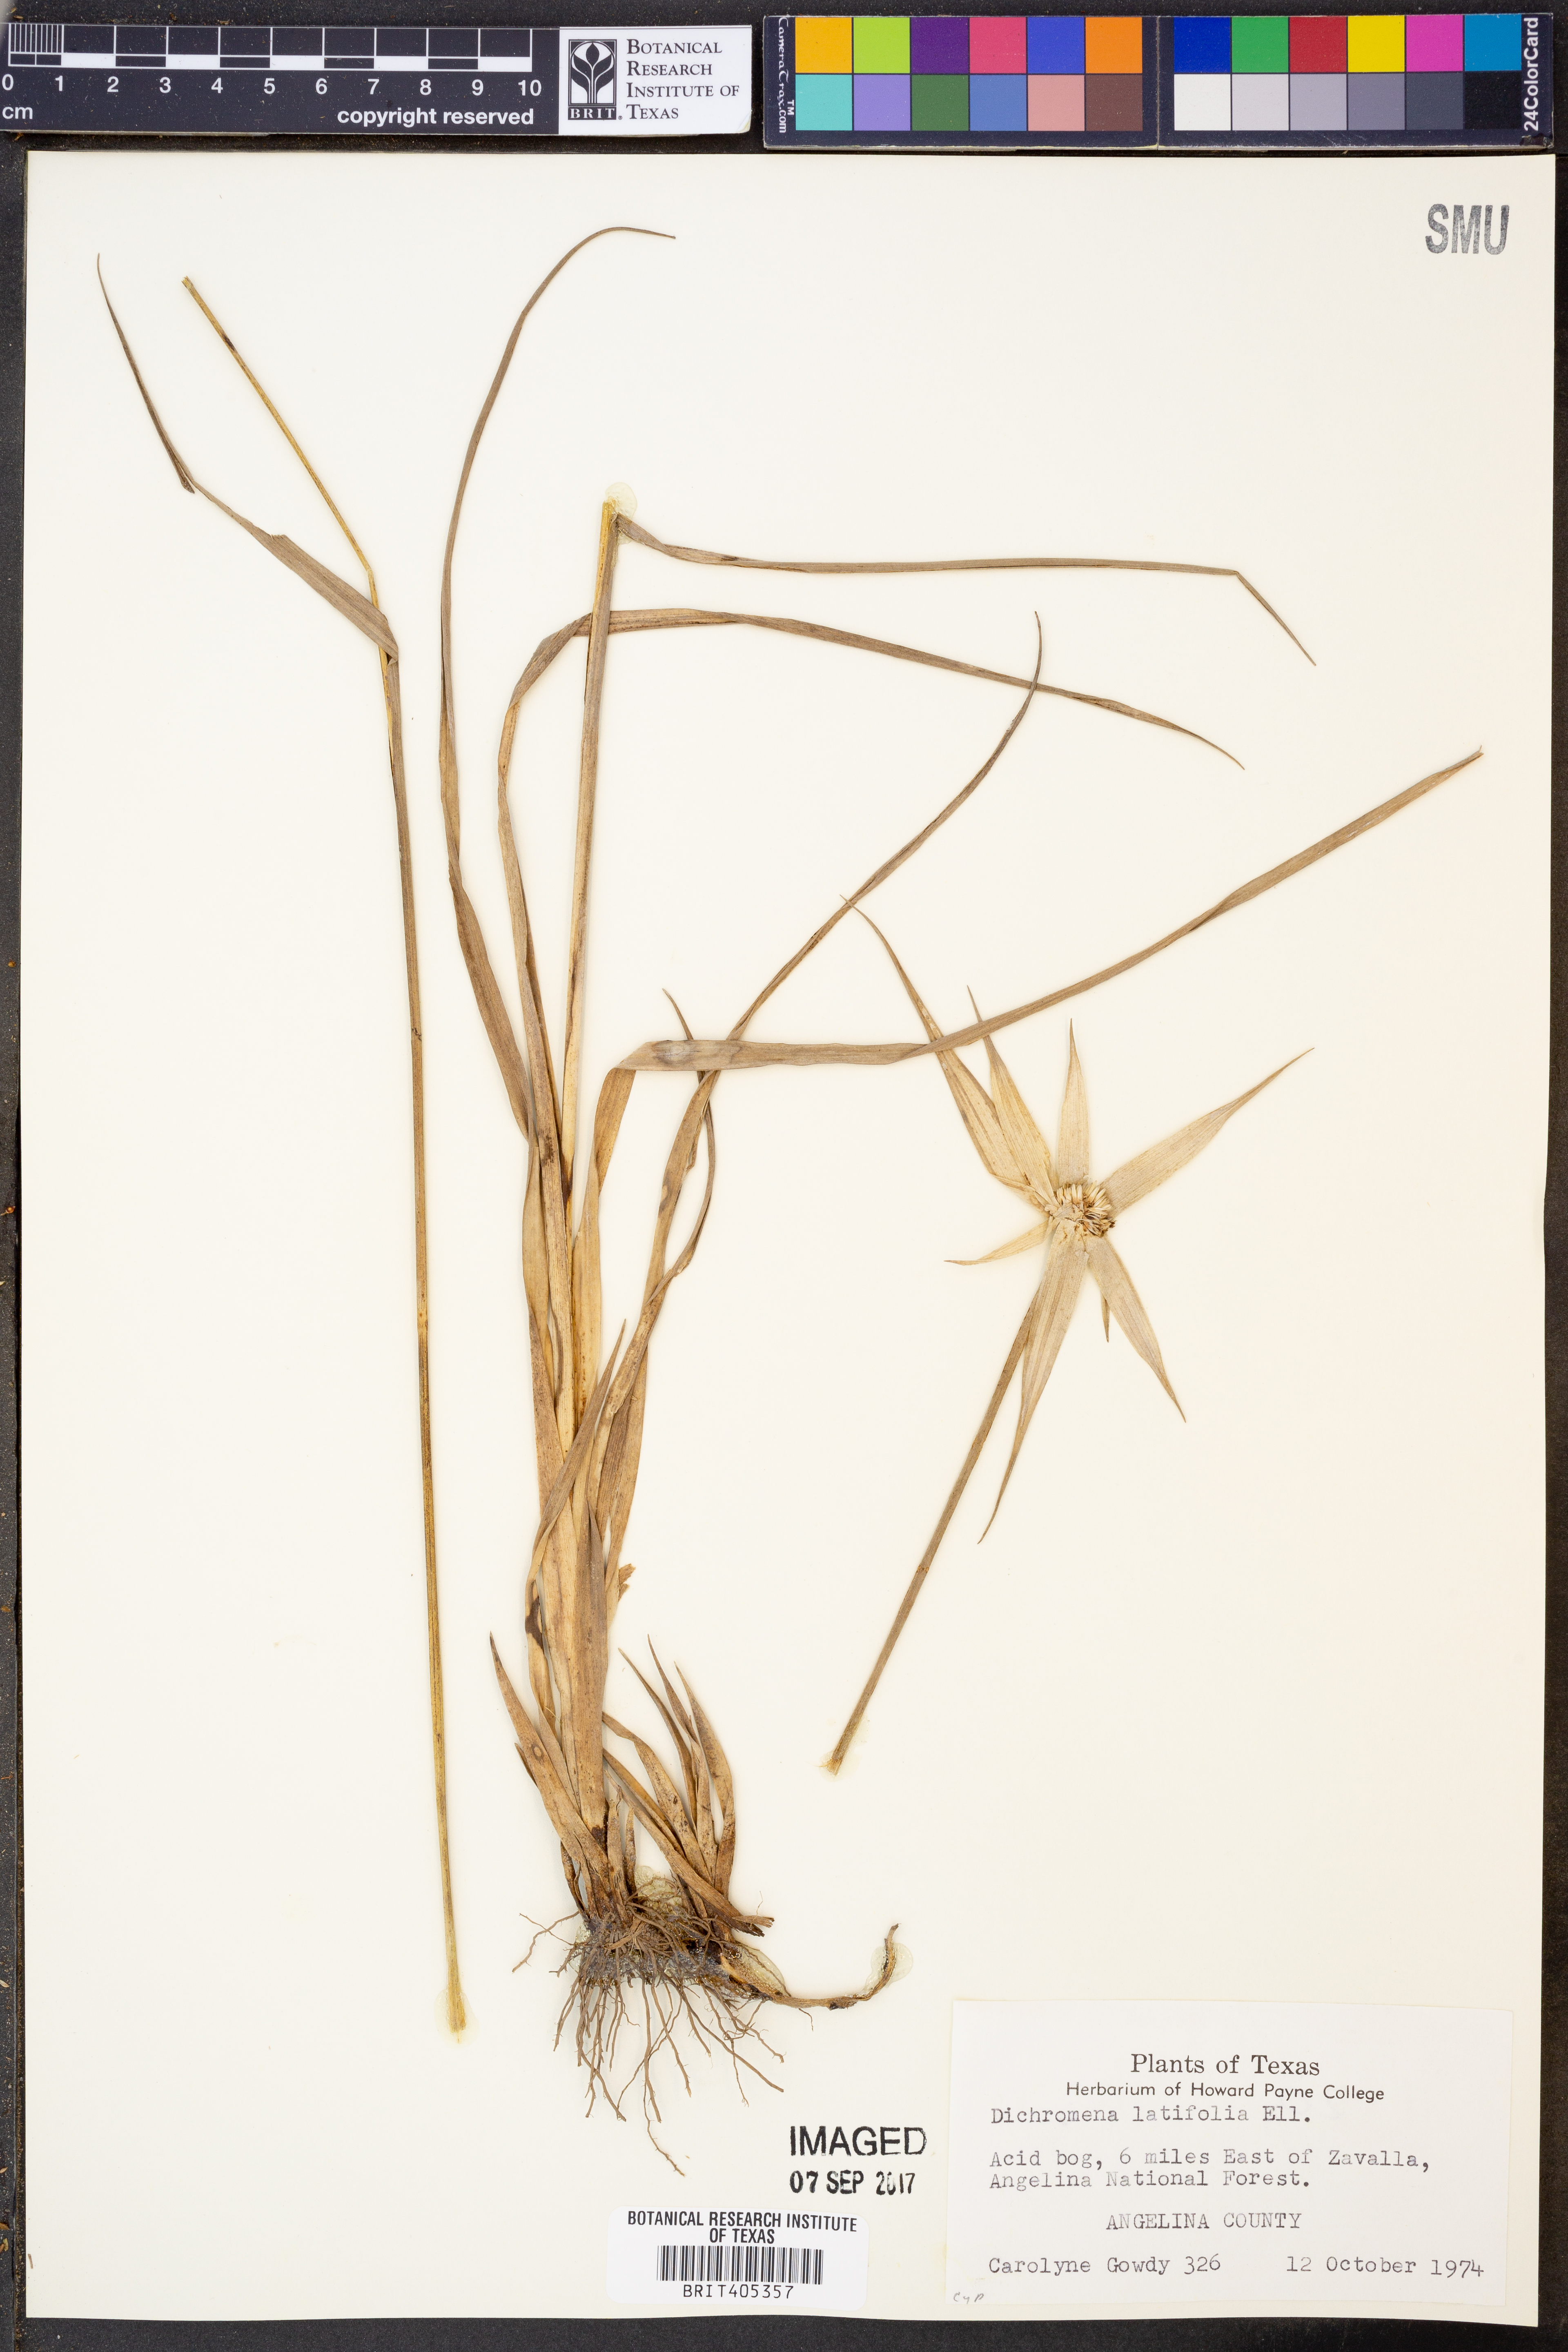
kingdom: Plantae
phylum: Tracheophyta
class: Liliopsida
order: Poales
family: Cyperaceae
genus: Rhynchospora
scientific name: Rhynchospora latifolia
